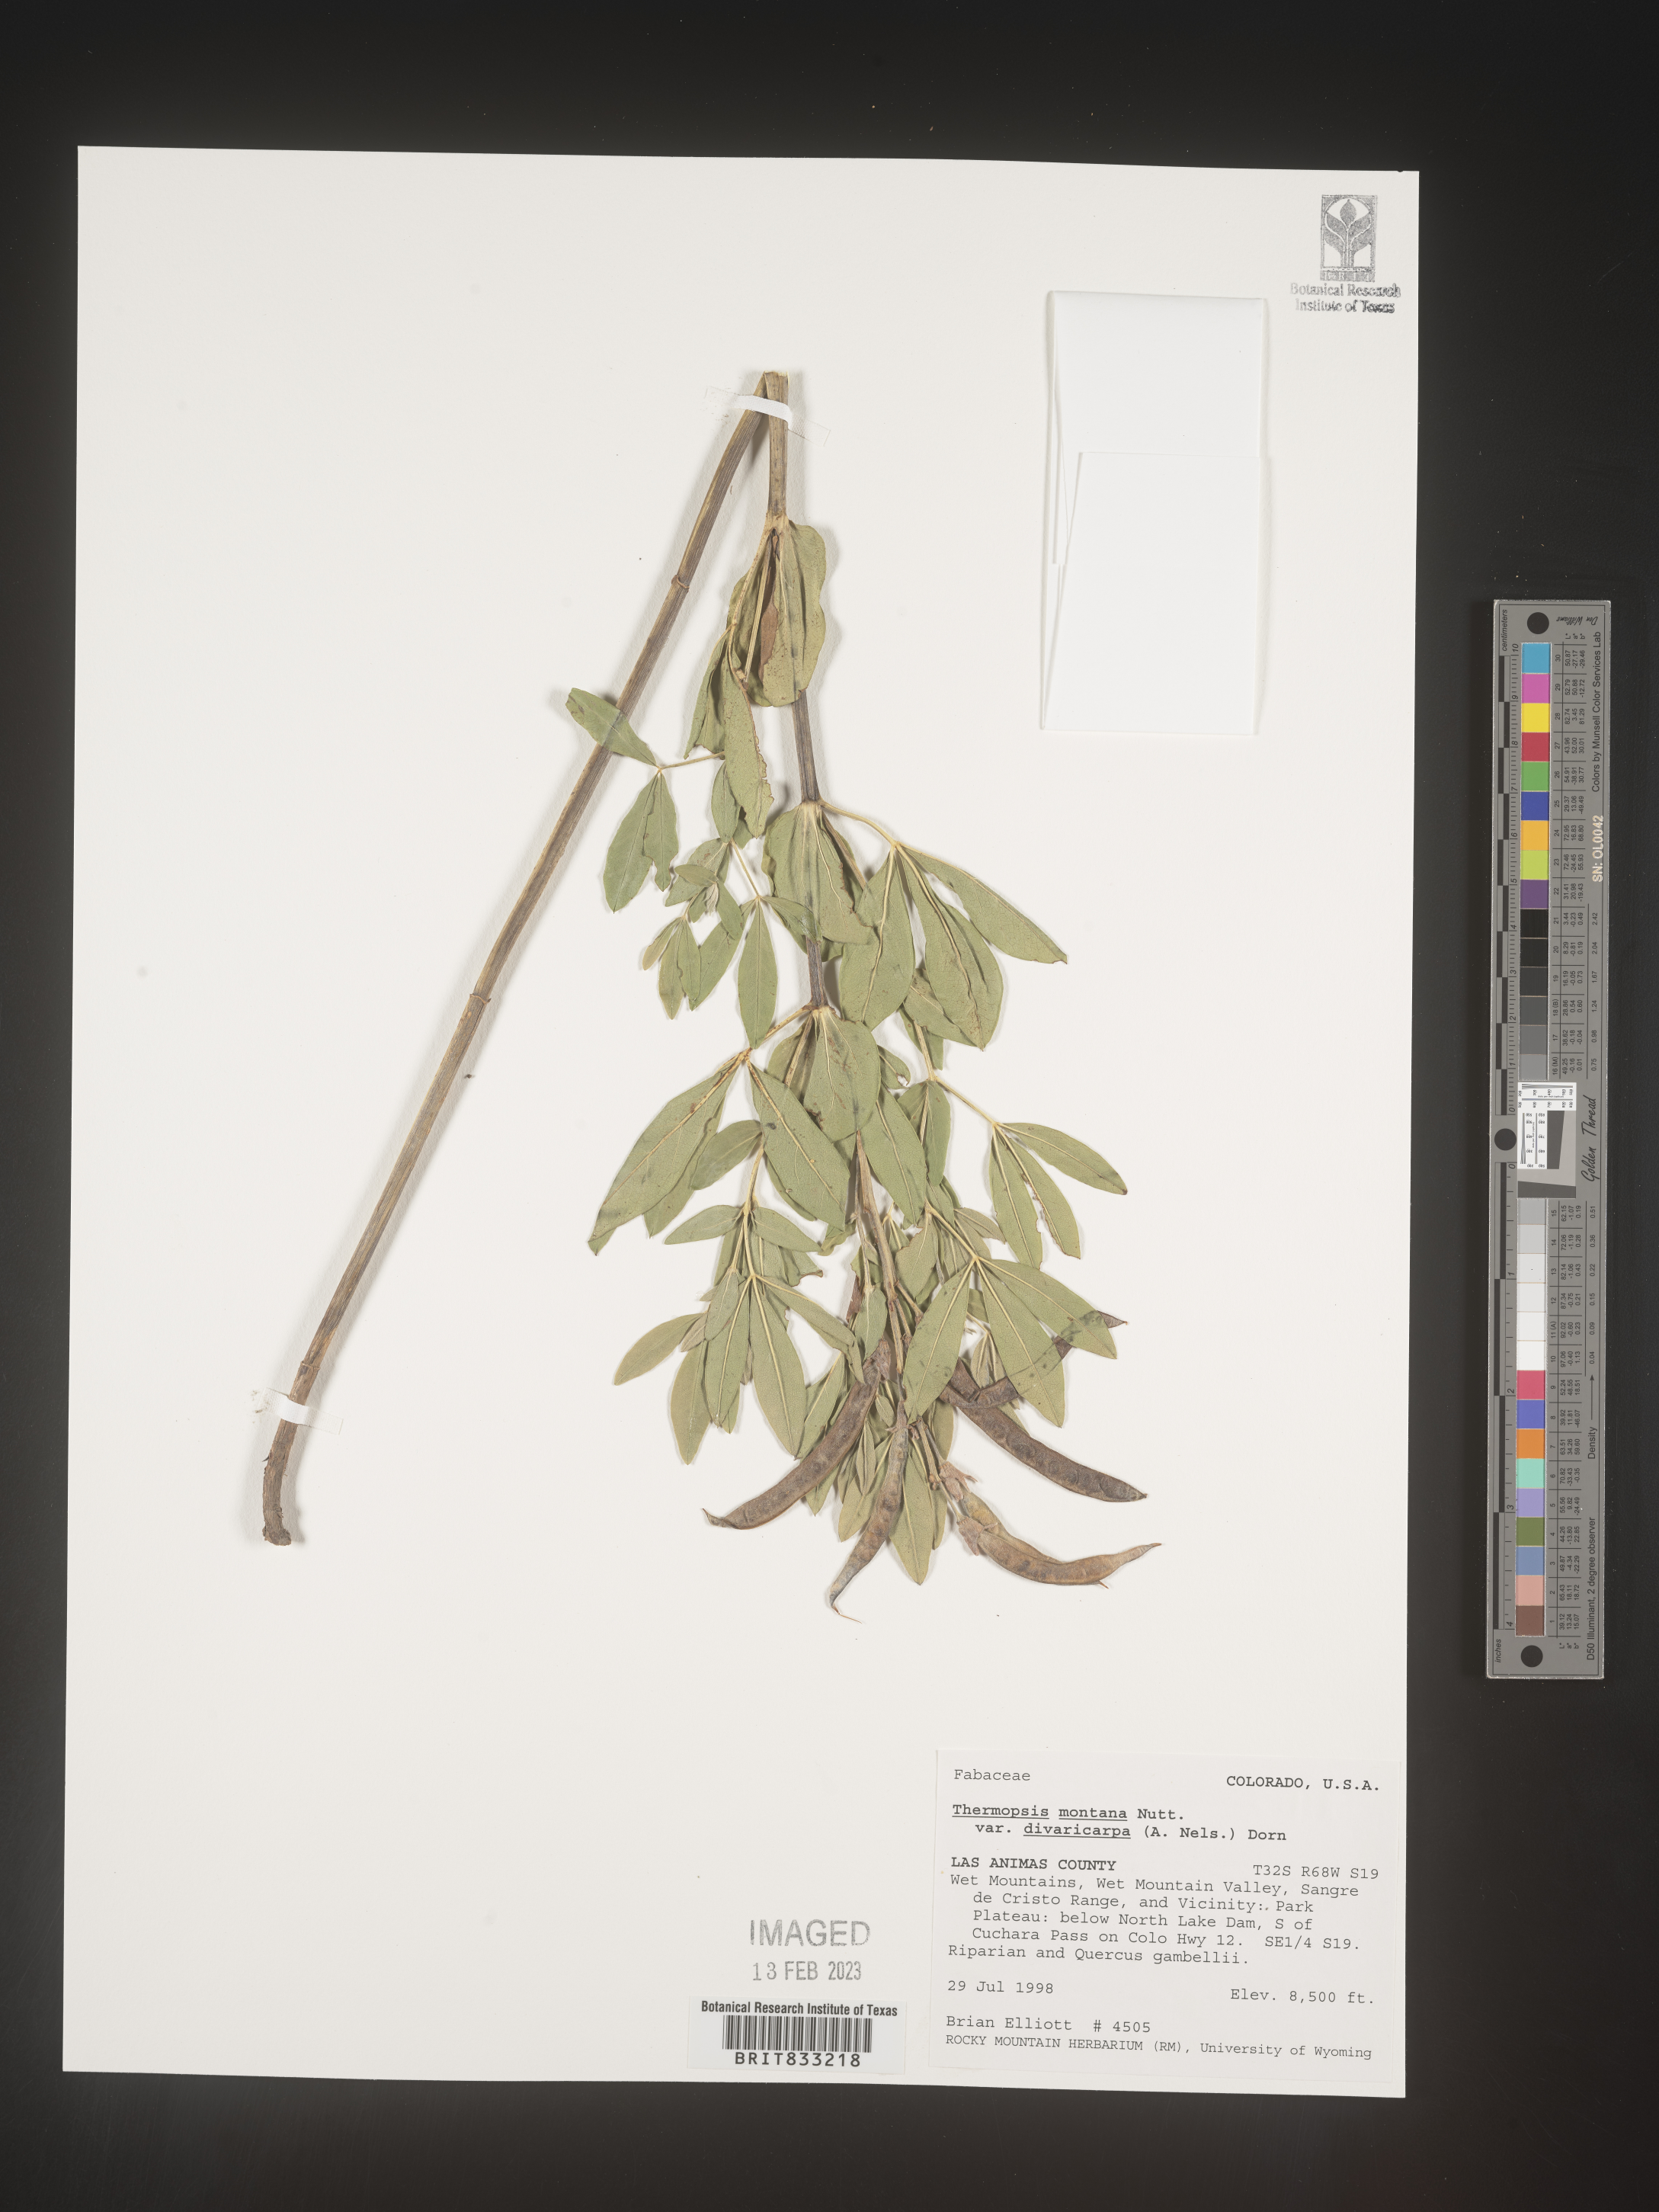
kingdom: Plantae
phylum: Tracheophyta
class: Magnoliopsida
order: Fabales
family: Fabaceae
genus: Thermopsis
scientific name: Thermopsis montana
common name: False lupin
